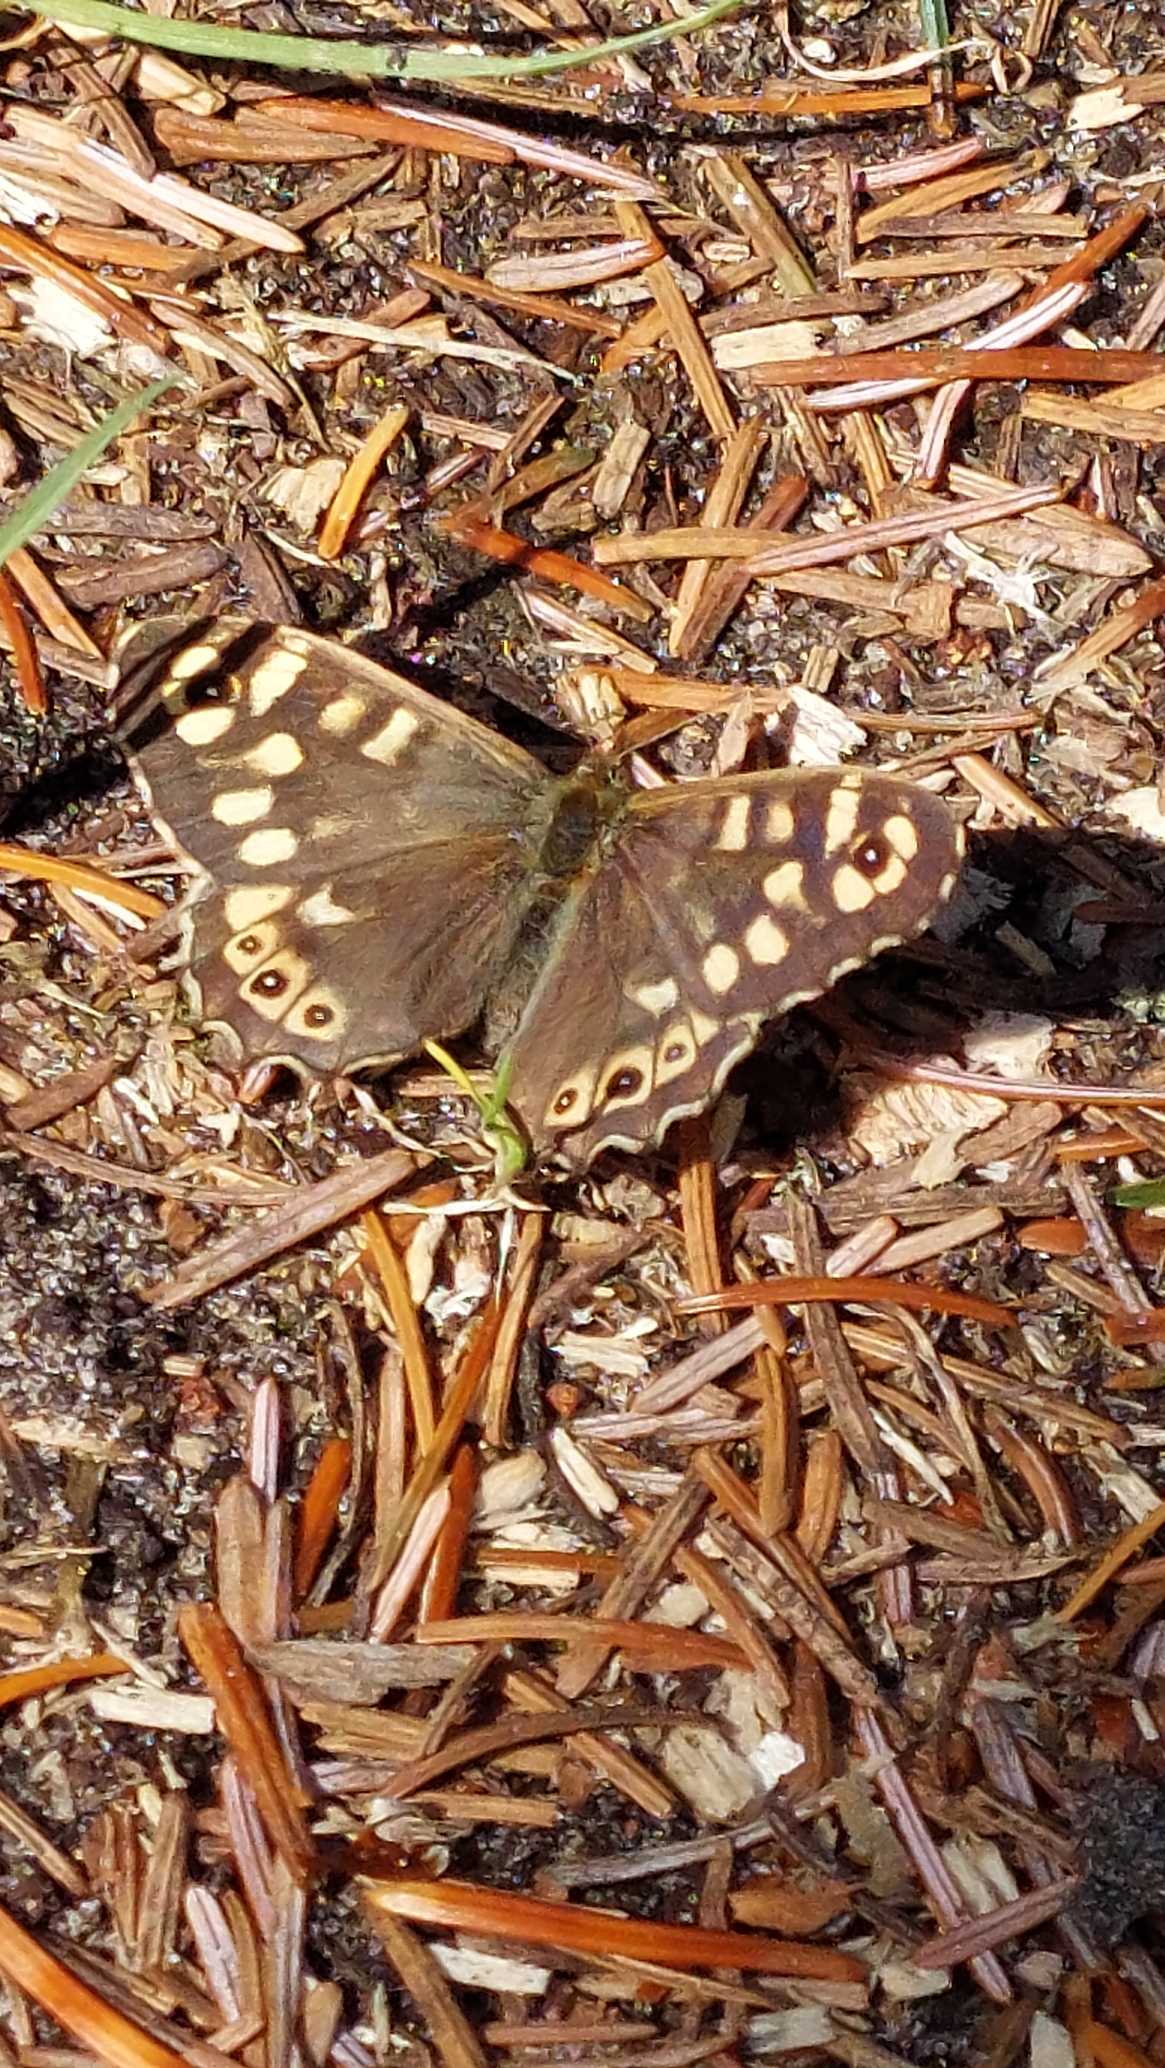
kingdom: Animalia
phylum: Arthropoda
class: Insecta
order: Lepidoptera
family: Nymphalidae
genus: Pararge
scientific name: Pararge aegeria
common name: Skovrandøje
